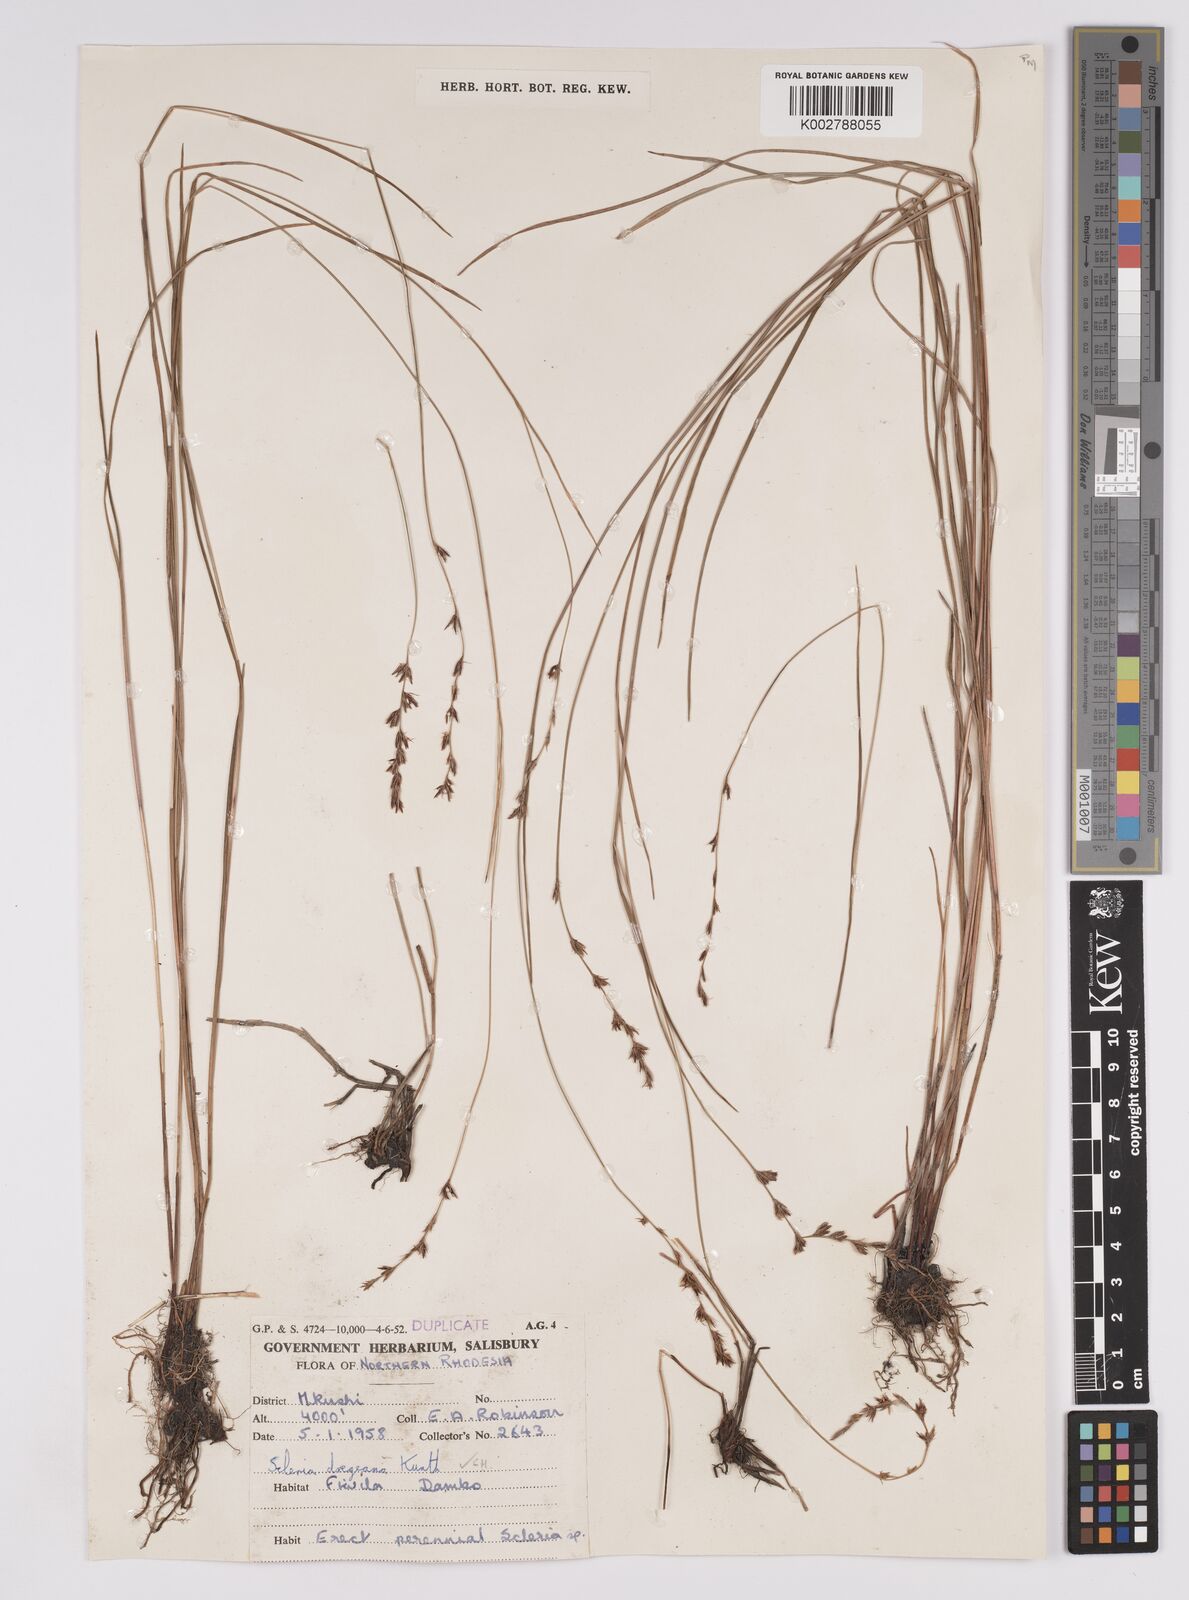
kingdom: Plantae
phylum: Tracheophyta
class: Liliopsida
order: Poales
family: Cyperaceae
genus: Scleria
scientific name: Scleria dregeana
